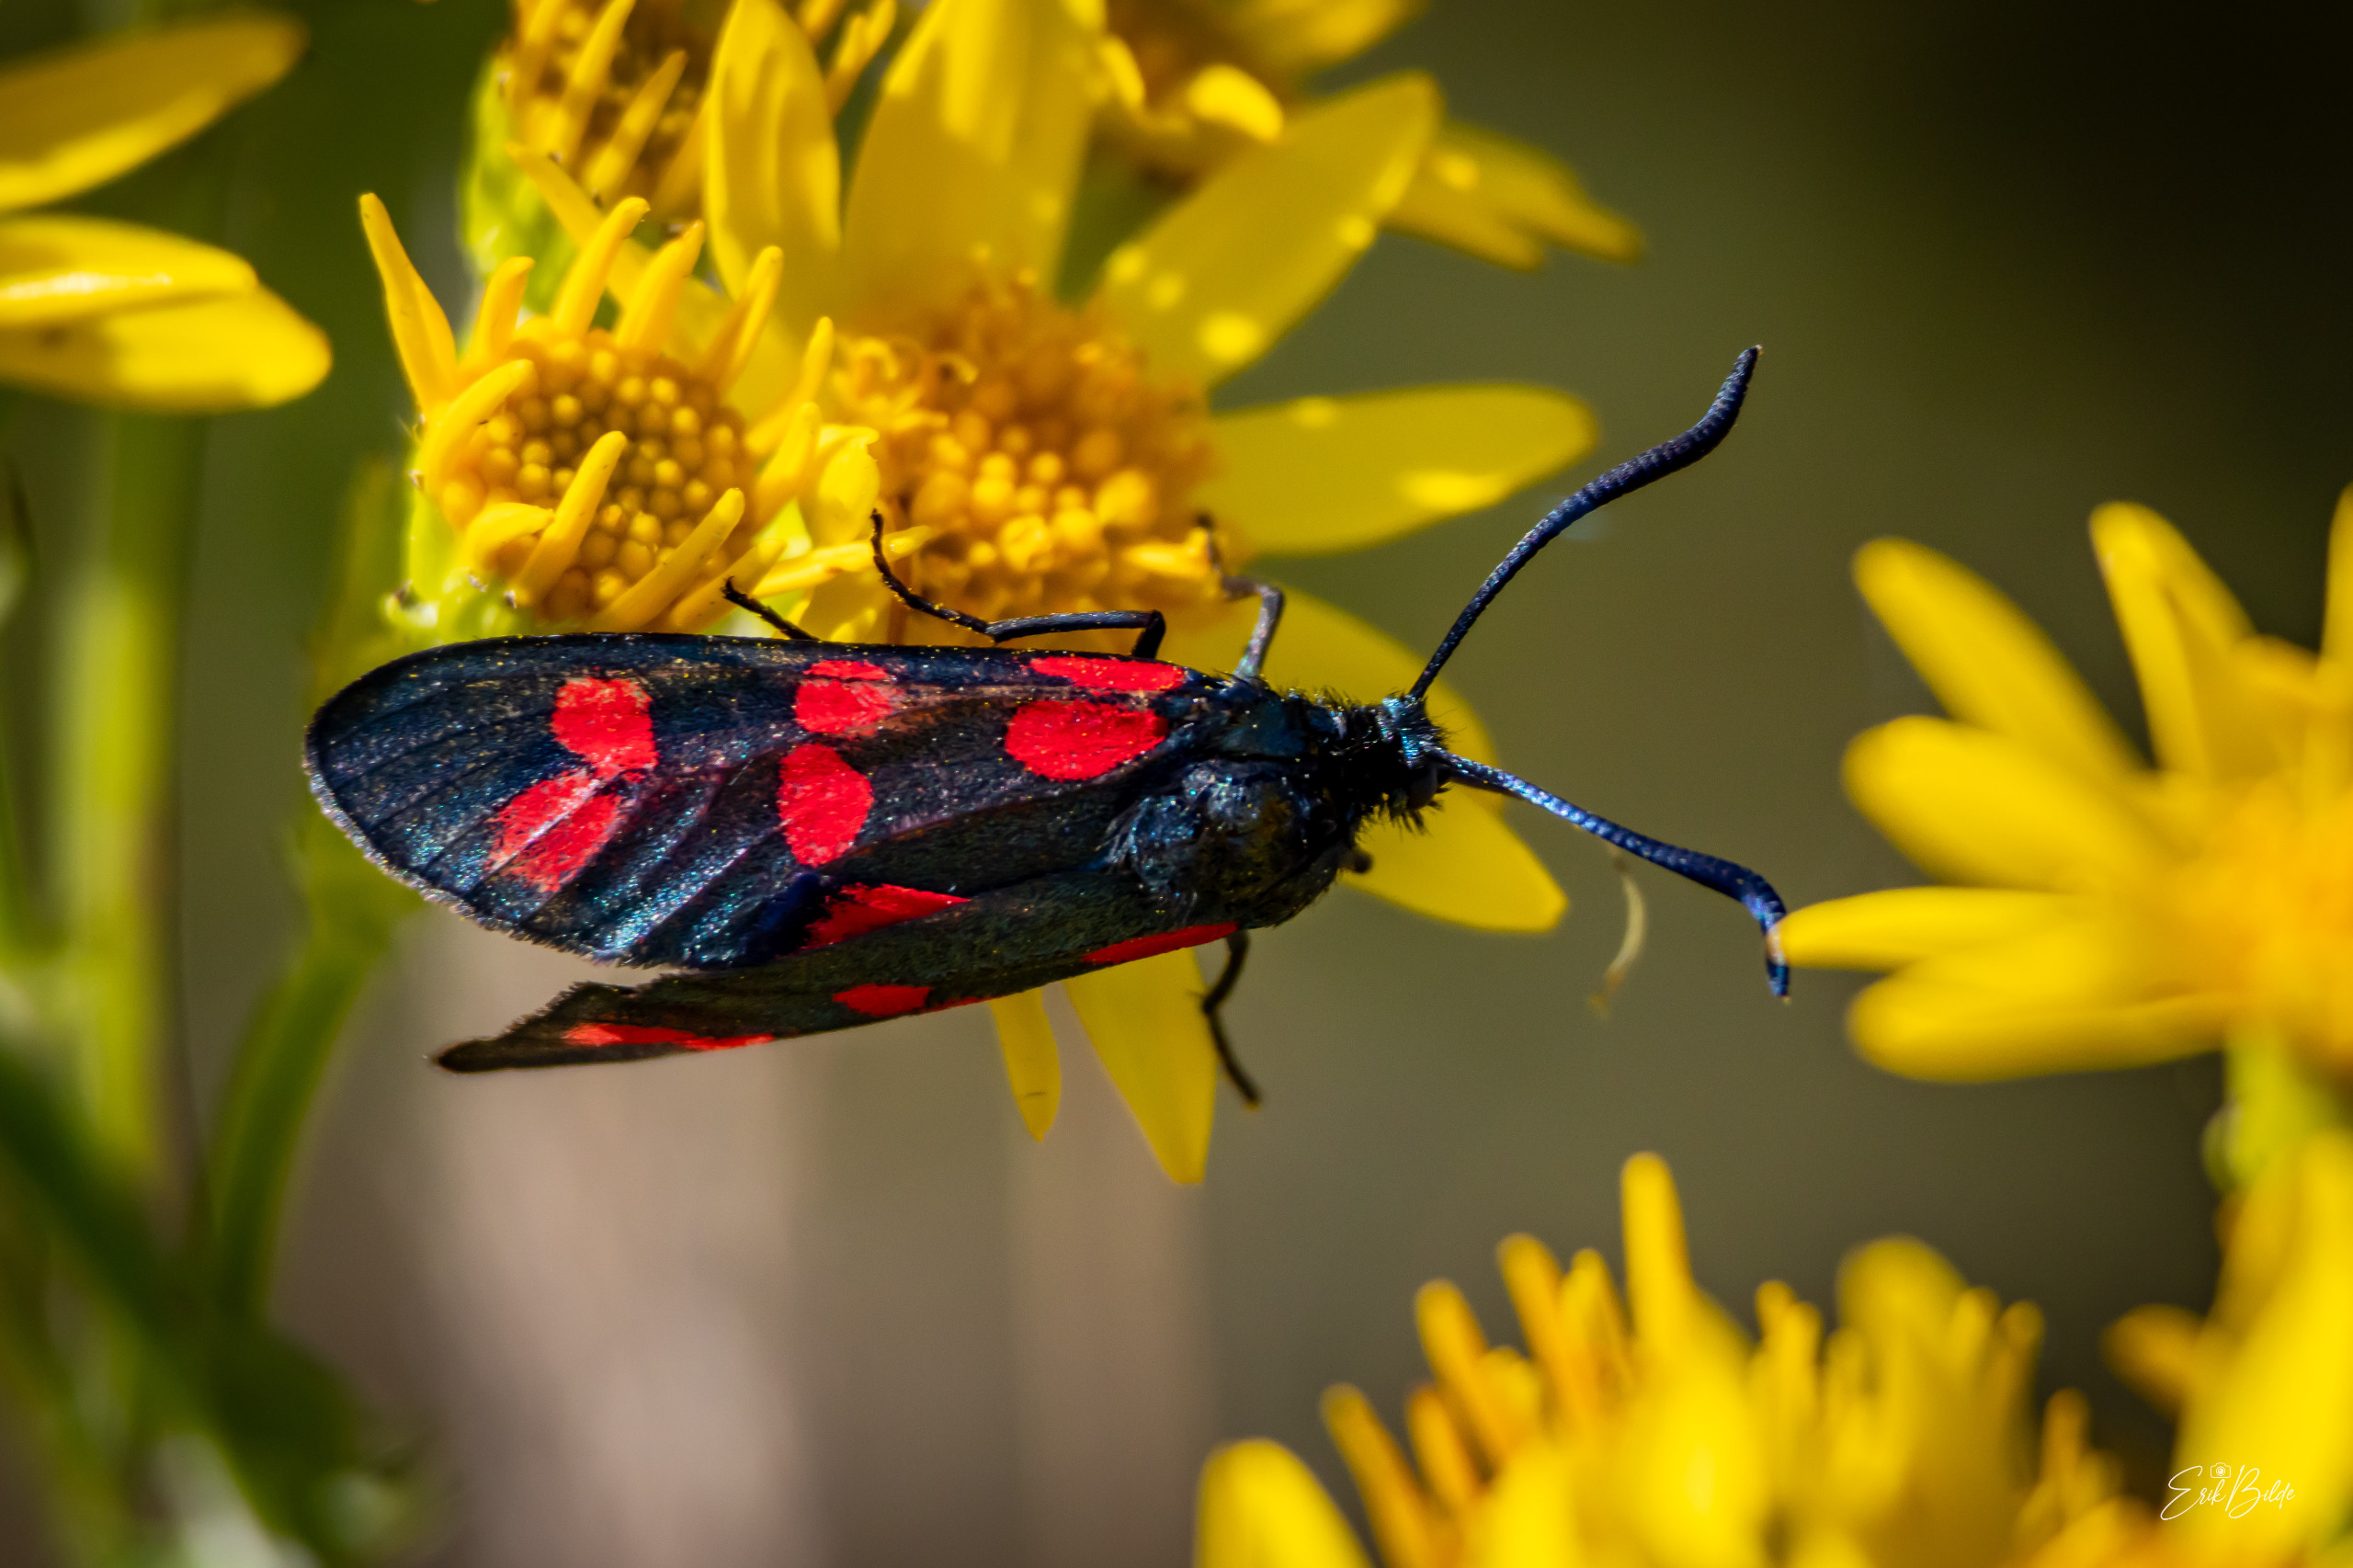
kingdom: Animalia
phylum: Arthropoda
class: Insecta
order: Lepidoptera
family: Zygaenidae
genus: Zygaena
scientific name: Zygaena filipendulae
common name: Seksplettet køllesværmer
